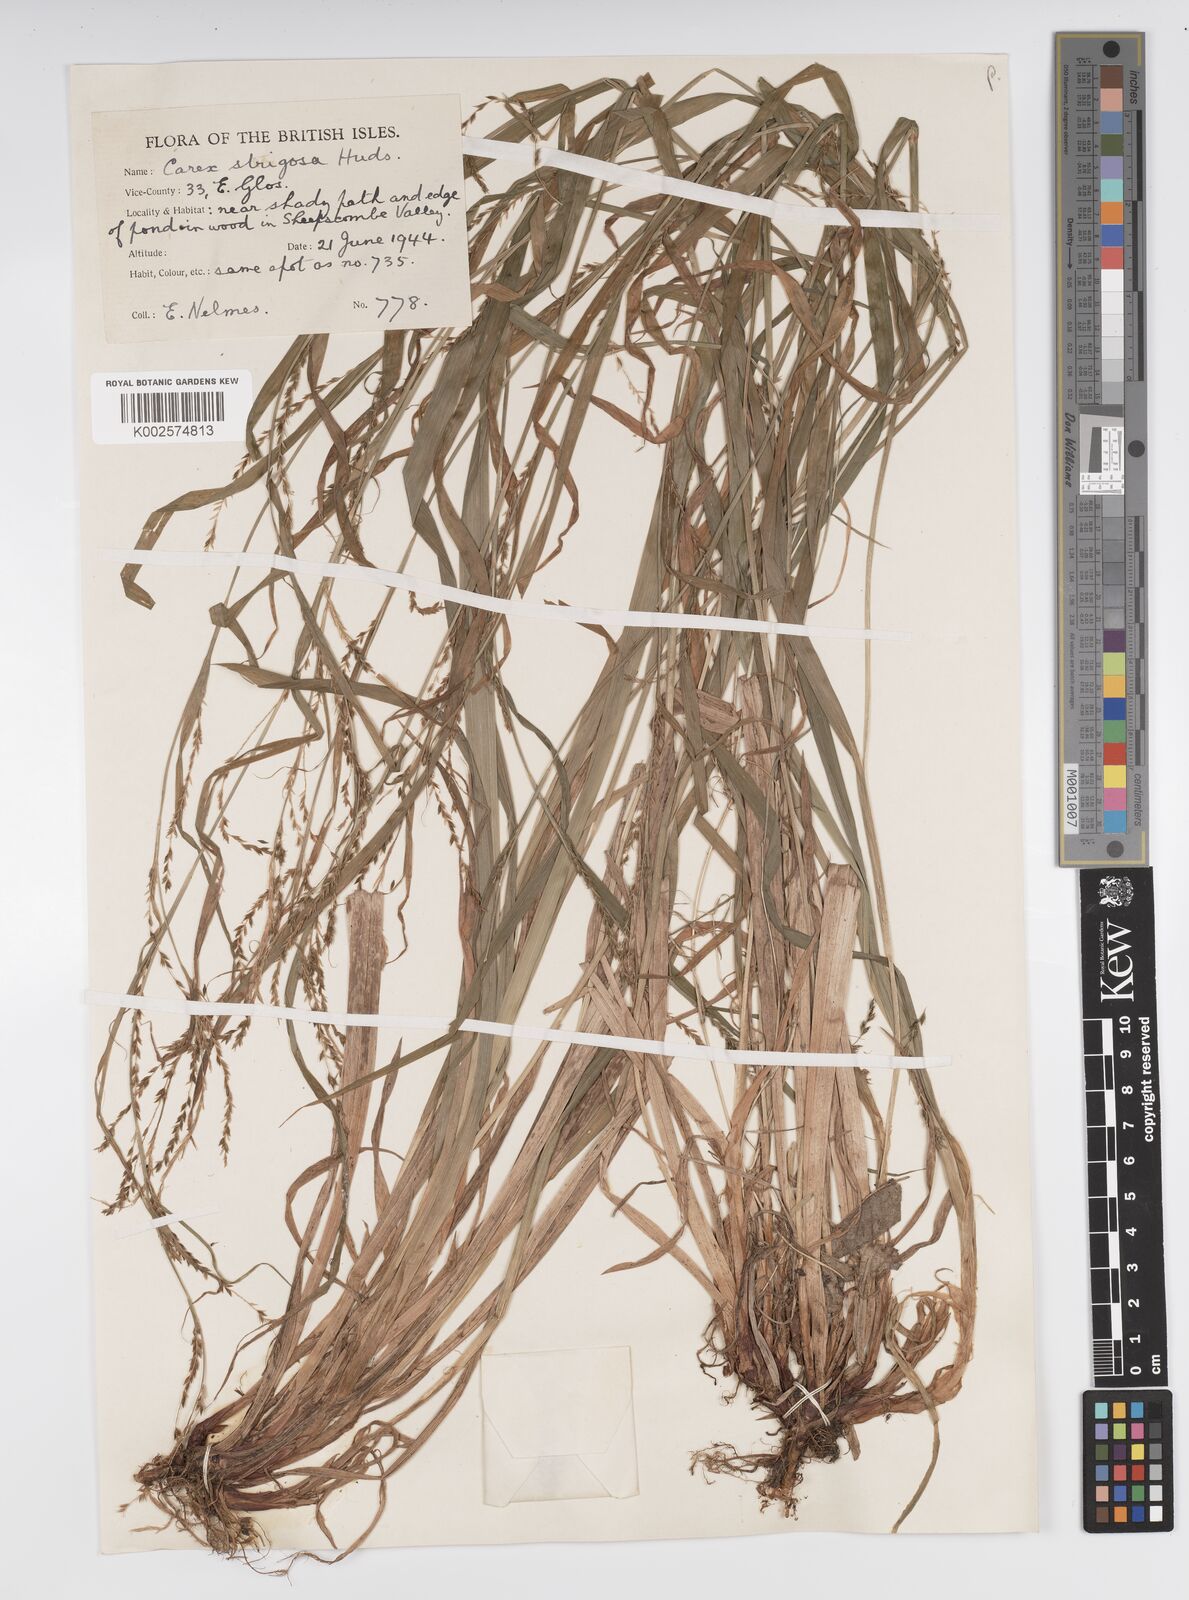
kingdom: Plantae
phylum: Tracheophyta
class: Liliopsida
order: Poales
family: Cyperaceae
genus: Carex
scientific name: Carex strigosa
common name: Thin-spiked wood-sedge
